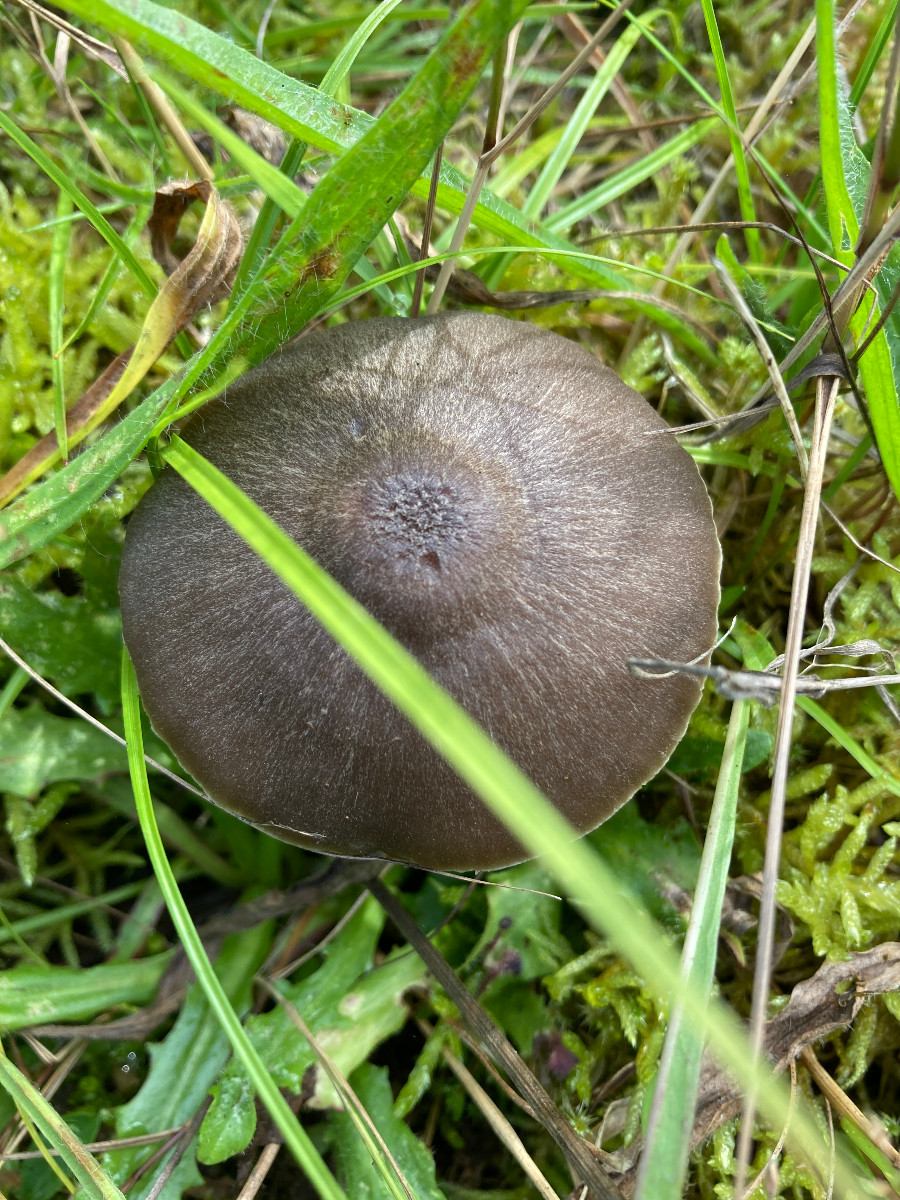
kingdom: Fungi
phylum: Basidiomycota
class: Agaricomycetes
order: Agaricales
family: Hygrophoraceae
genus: Neohygrocybe
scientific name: Neohygrocybe nitrata
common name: stinkende vokshat
